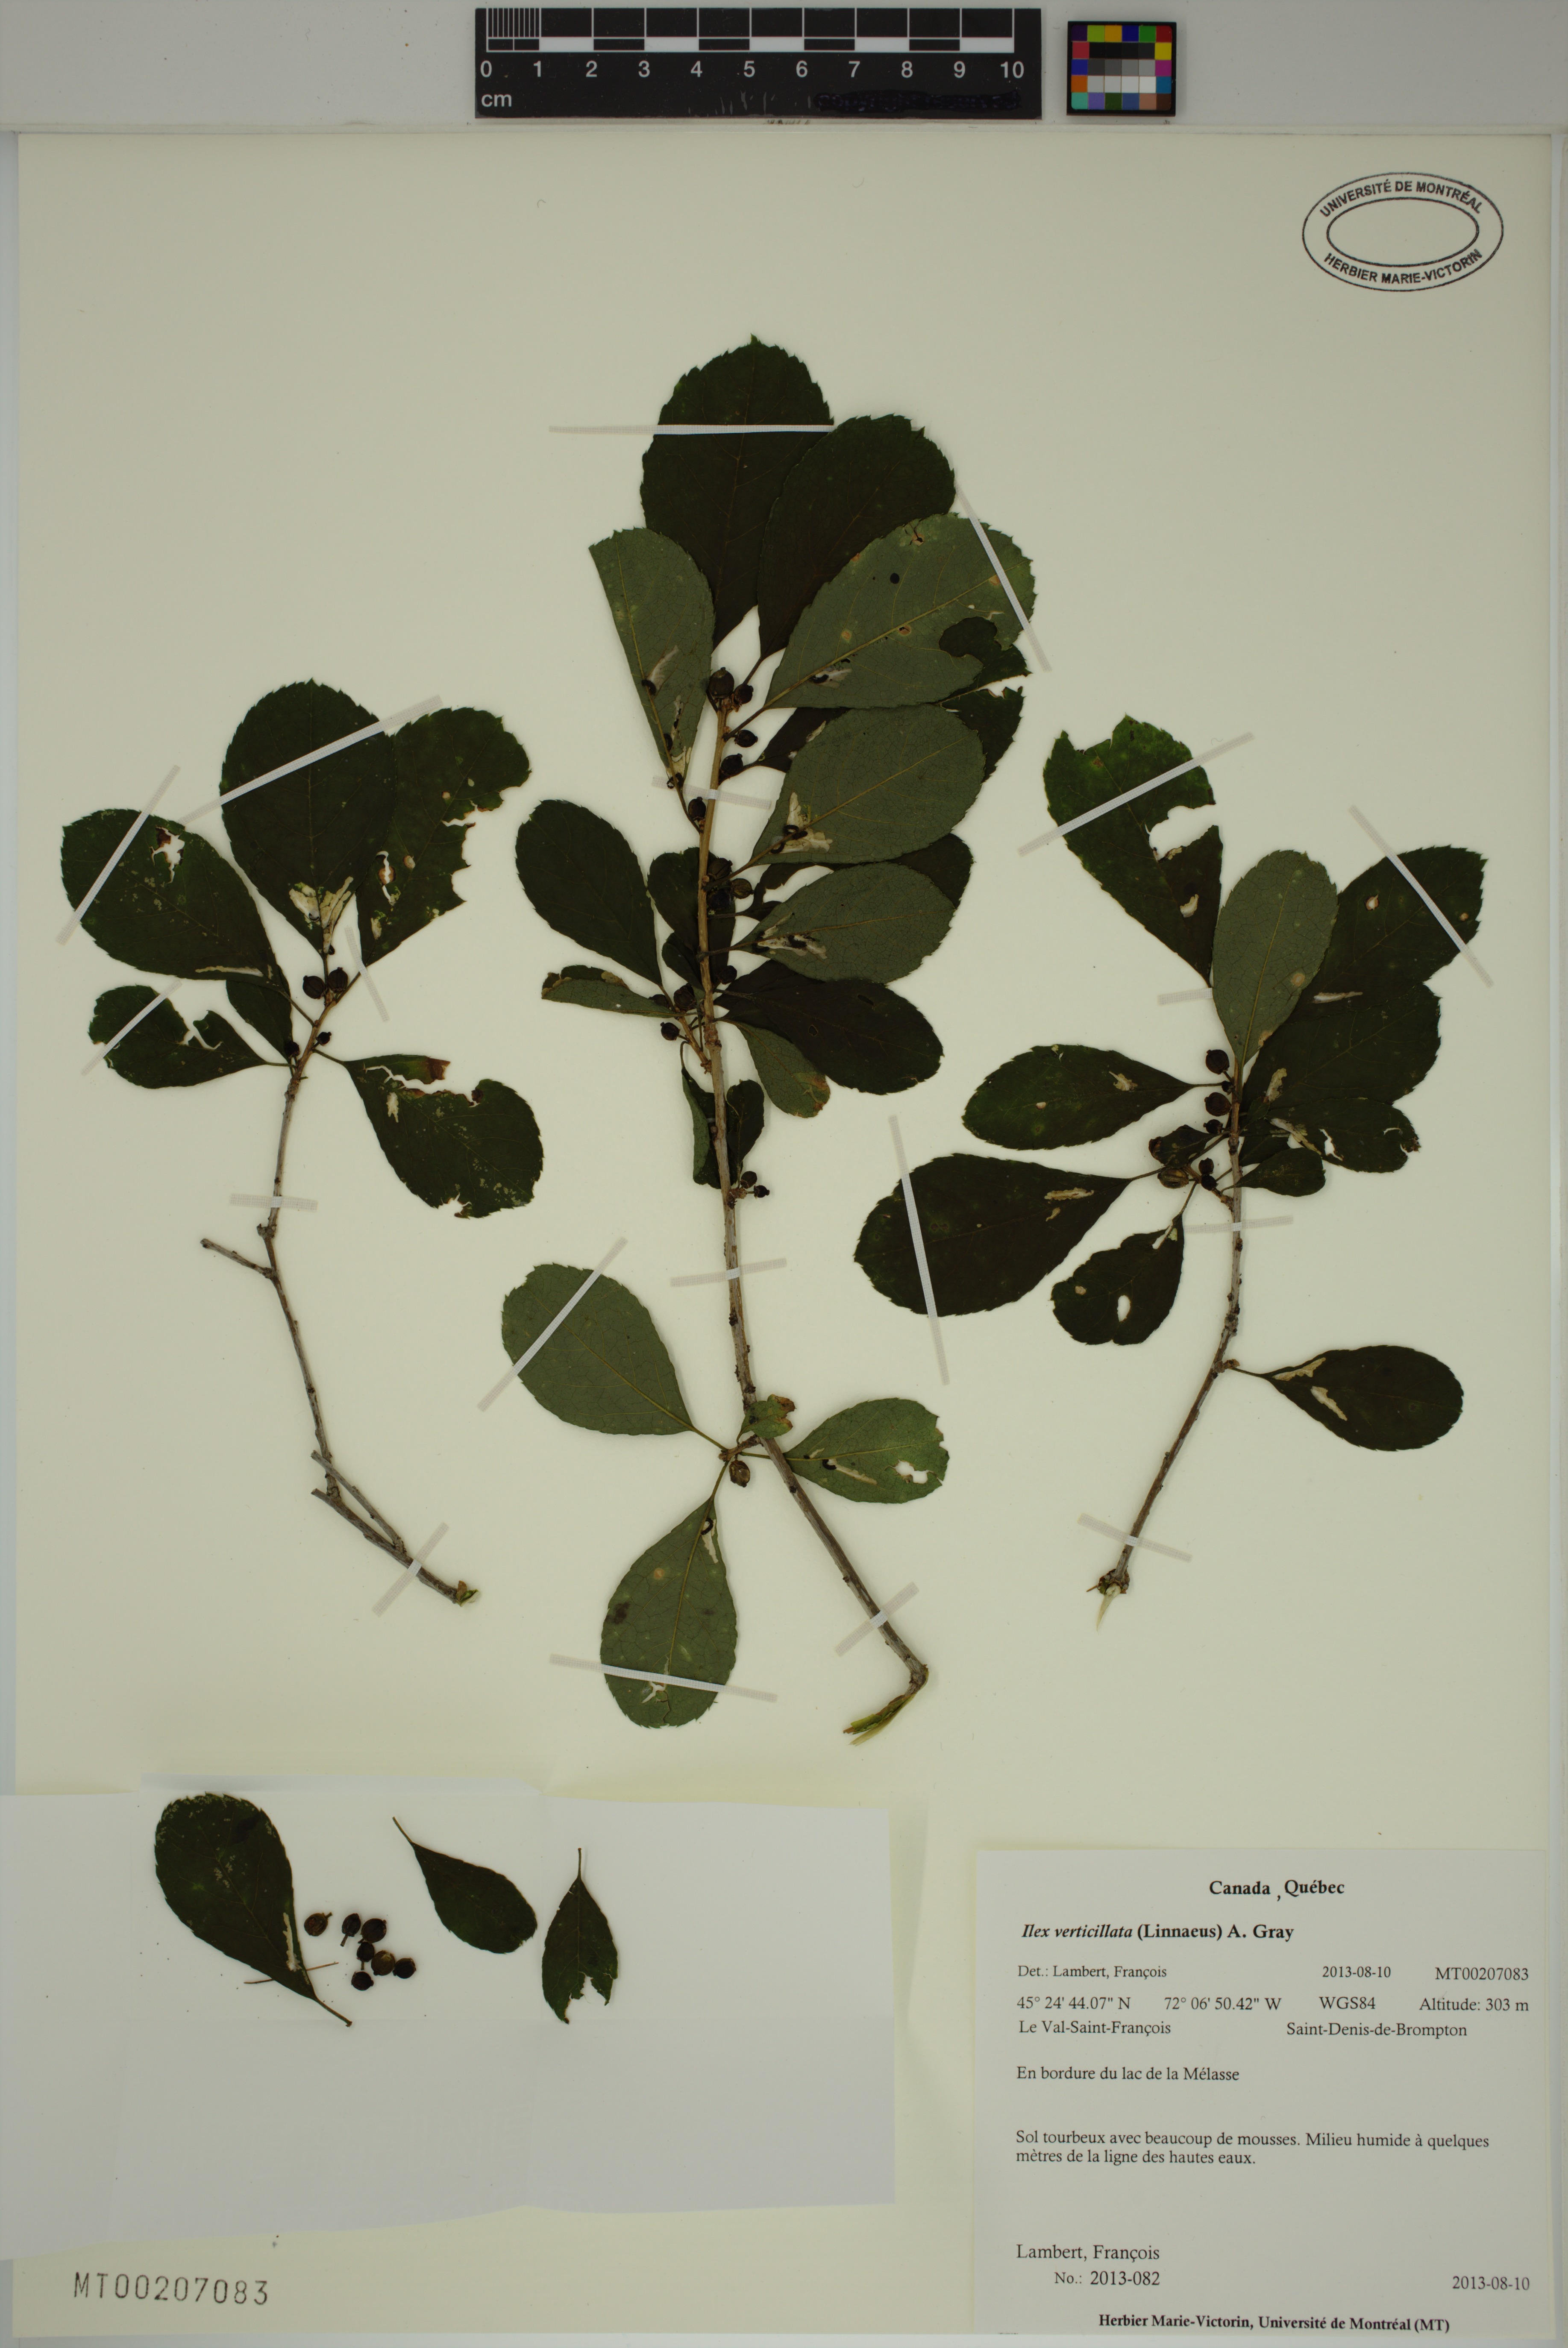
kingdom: Plantae
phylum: Tracheophyta
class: Magnoliopsida
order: Aquifoliales
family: Aquifoliaceae
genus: Ilex
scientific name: Ilex verticillata
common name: Virginia winterberry
